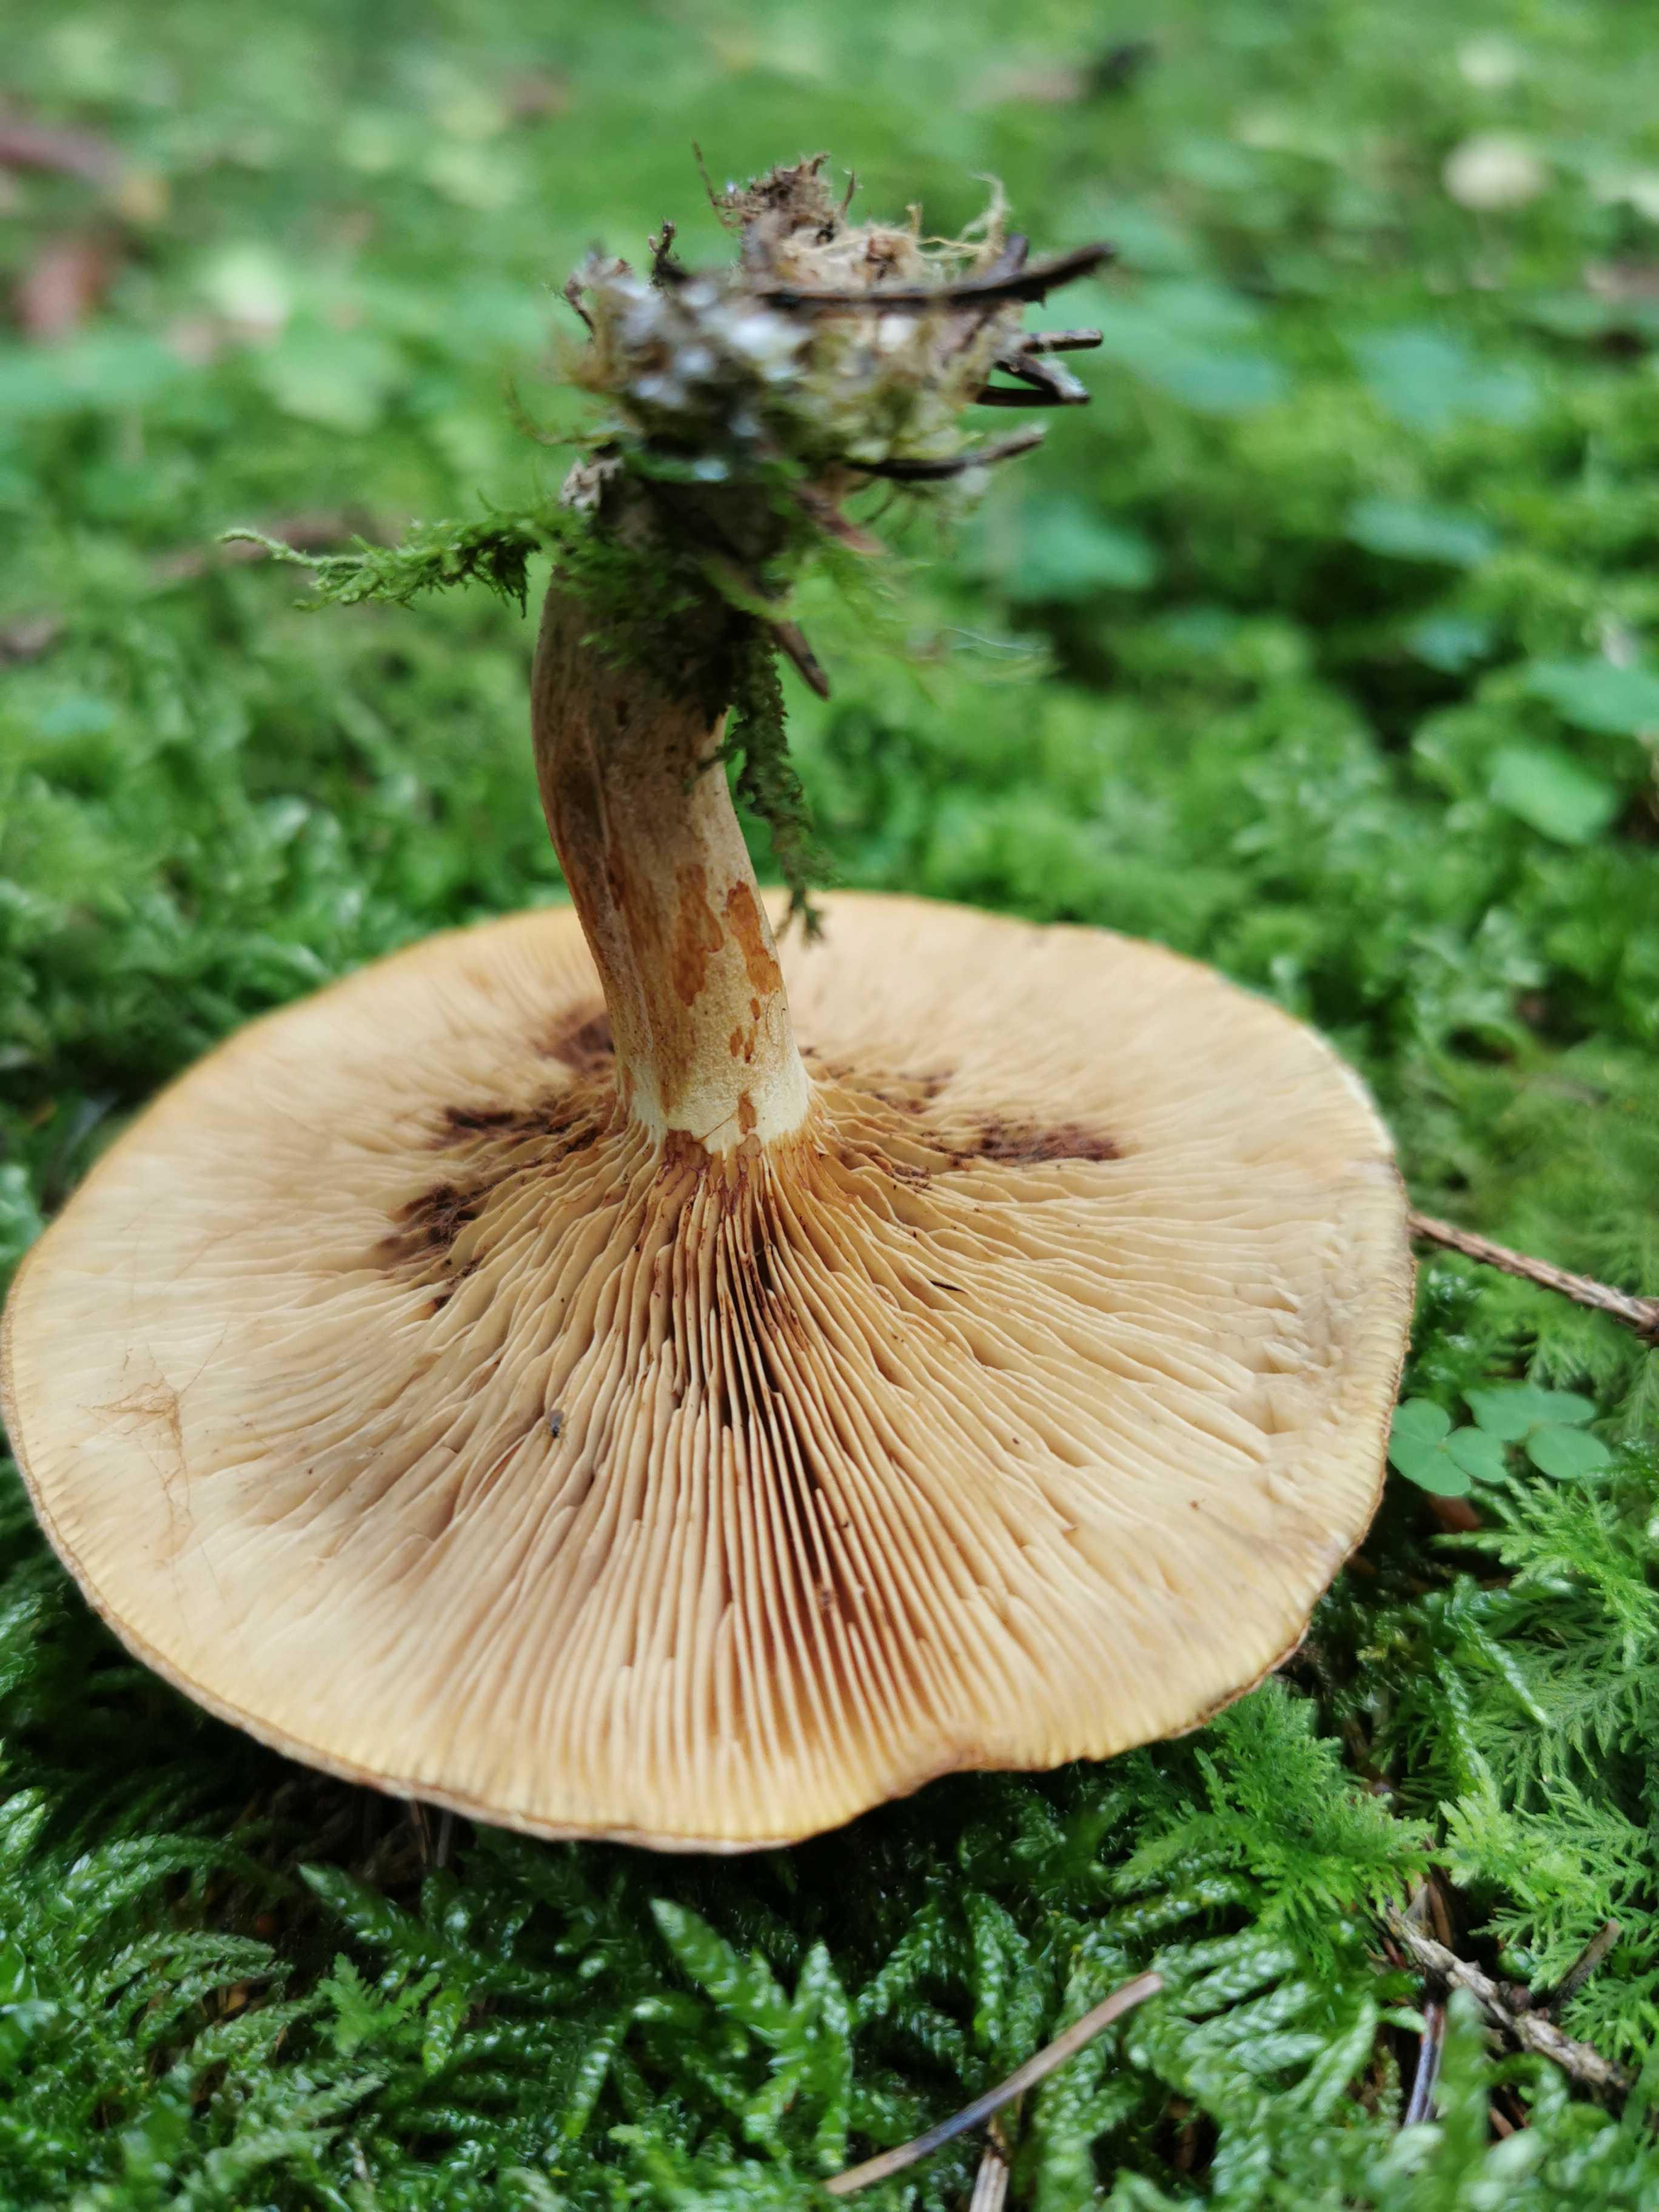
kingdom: Fungi
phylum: Basidiomycota
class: Agaricomycetes
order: Boletales
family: Paxillaceae
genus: Paxillus
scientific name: Paxillus involutus
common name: almindelig netbladhat
